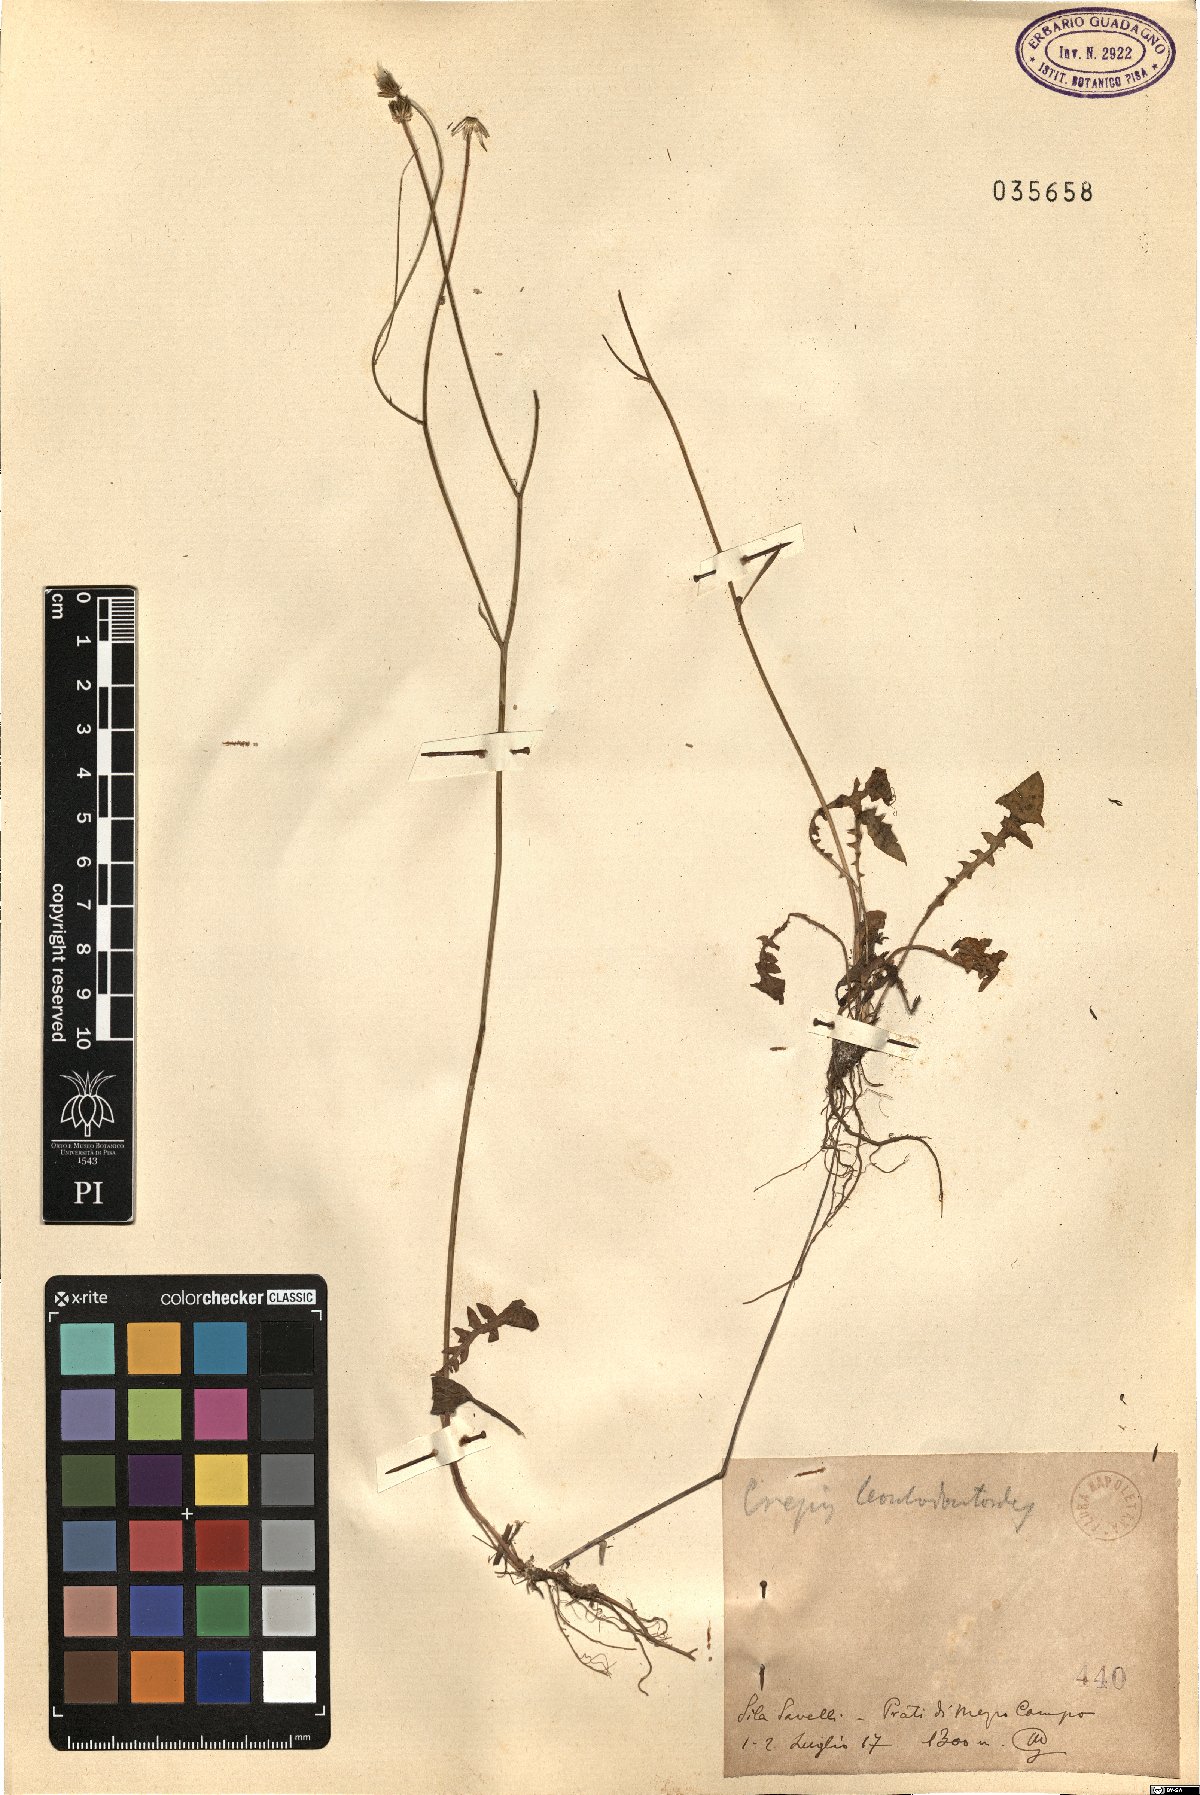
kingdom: Plantae
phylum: Tracheophyta
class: Magnoliopsida
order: Asterales
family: Asteraceae
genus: Crepis
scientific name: Crepis leontodontoides
